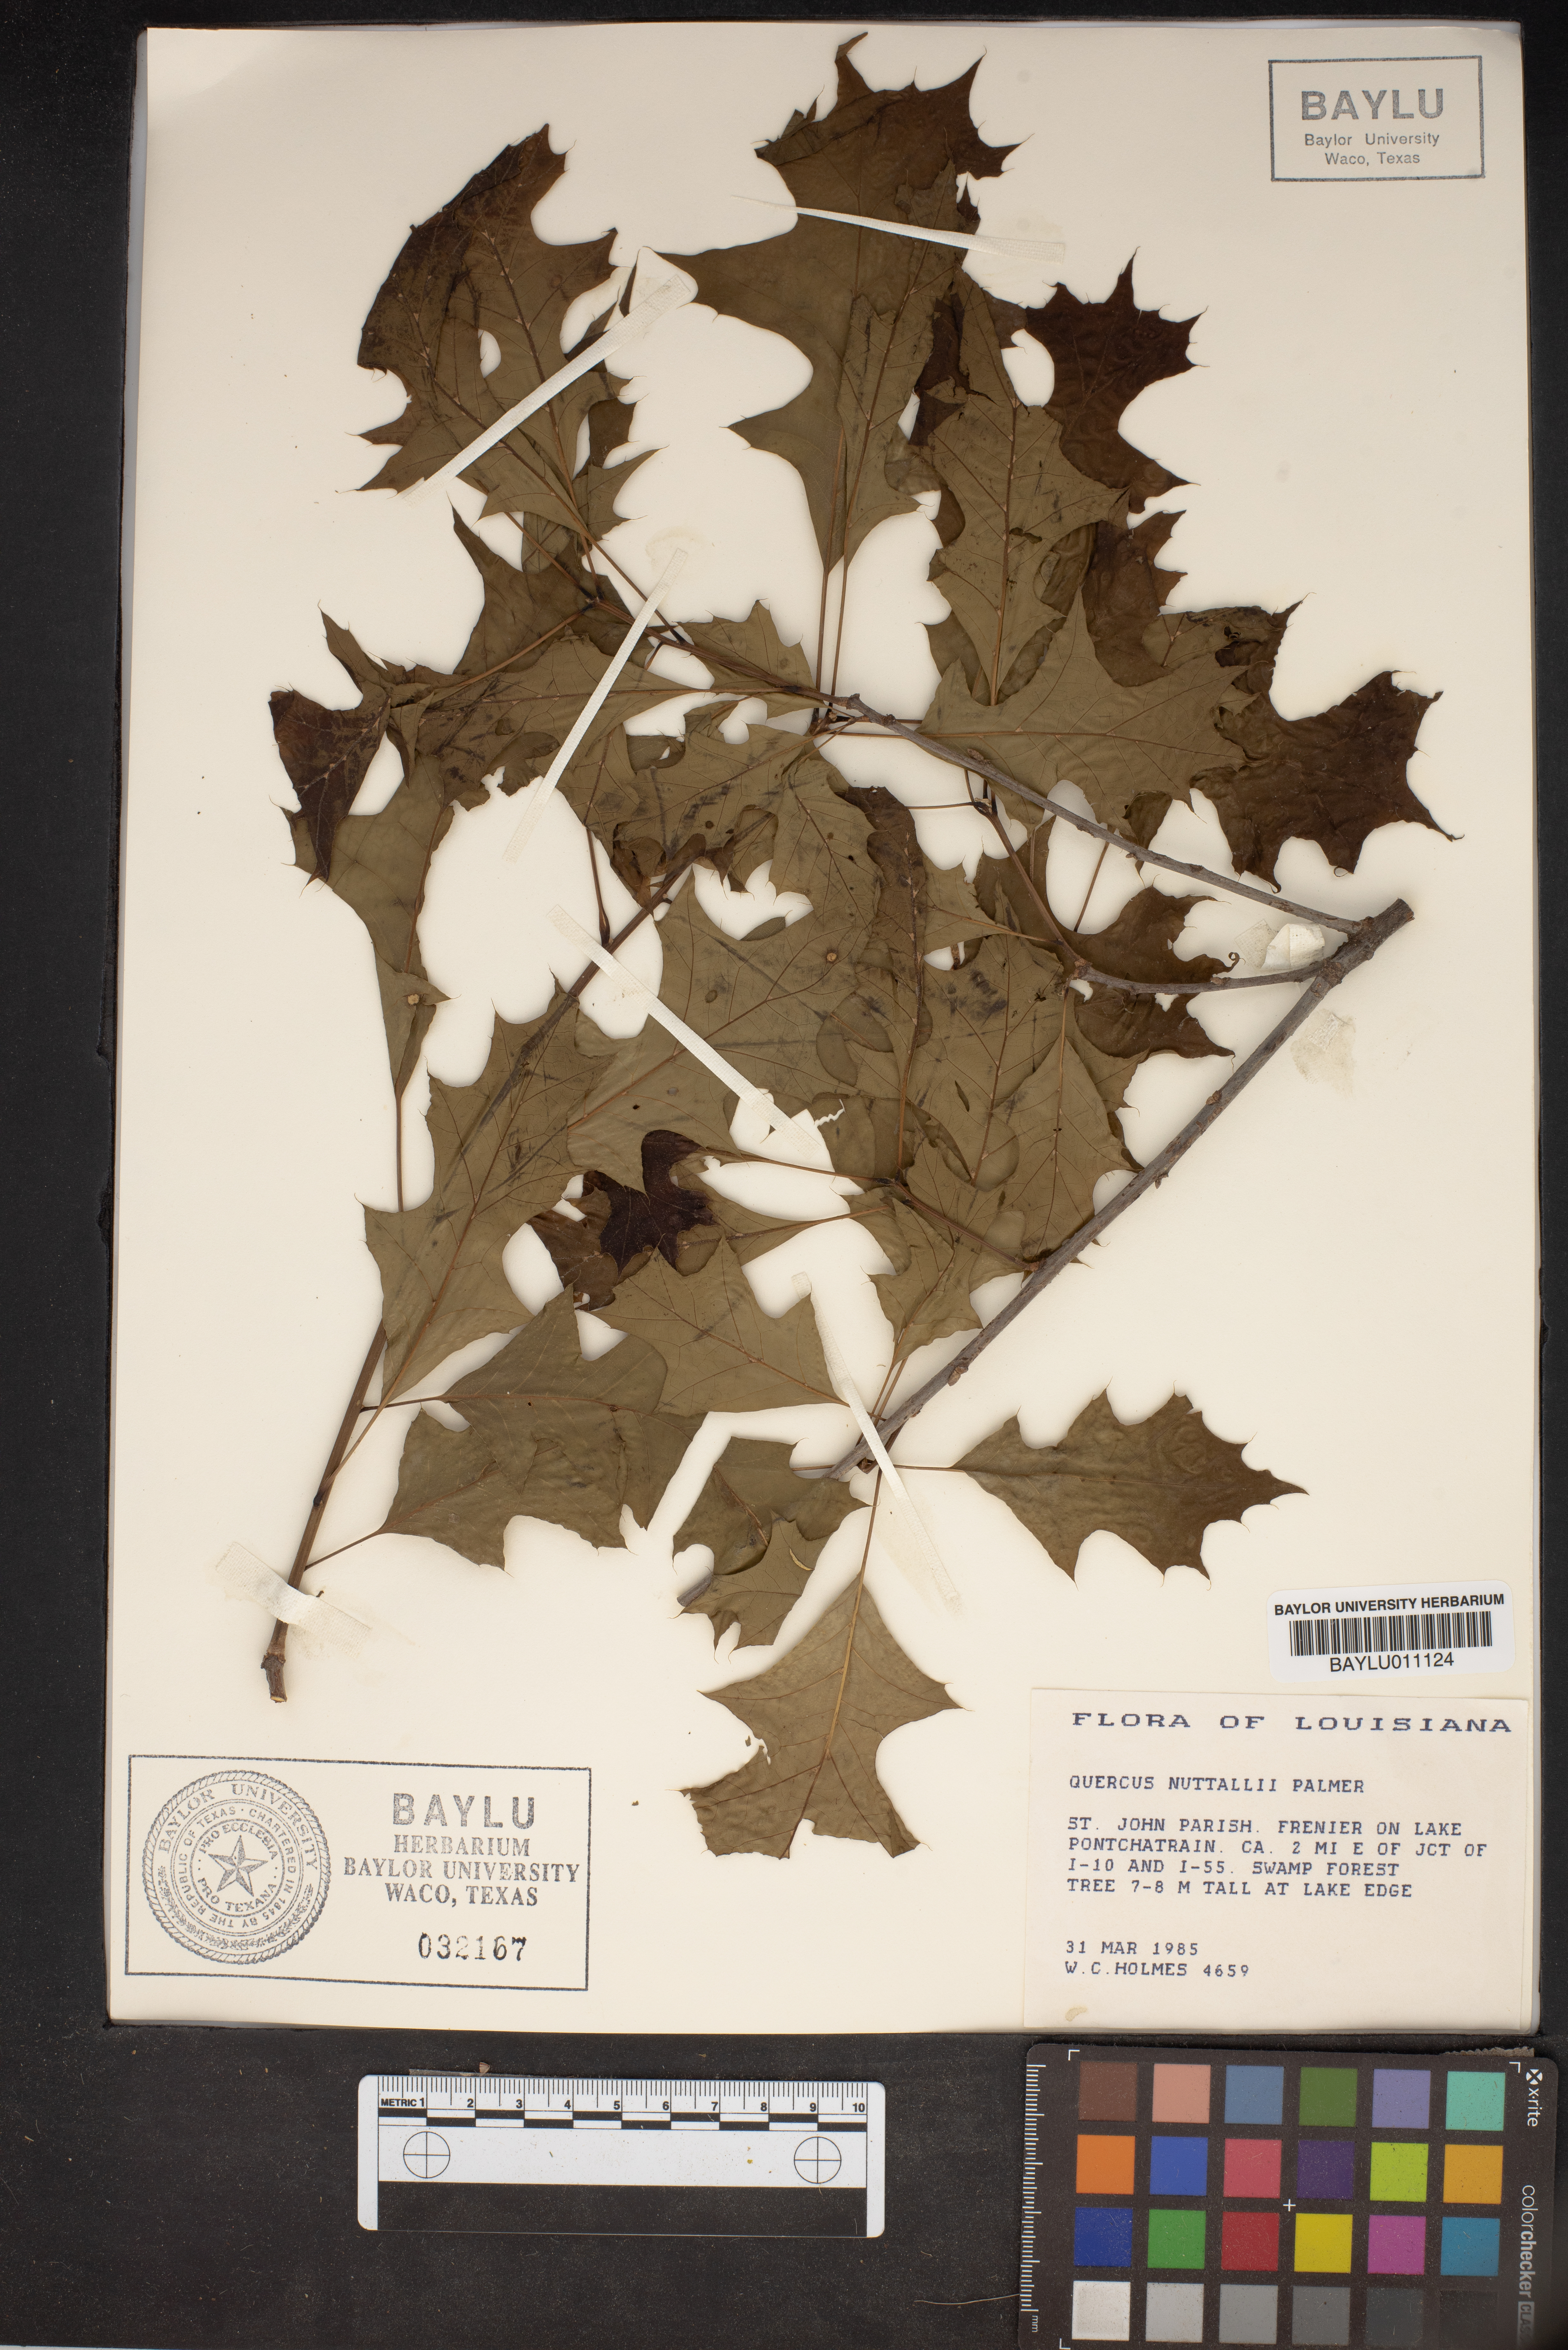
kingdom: Plantae
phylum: Tracheophyta
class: Magnoliopsida
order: Fagales
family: Fagaceae
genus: Quercus
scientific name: Quercus texana
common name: Nuttall oak
